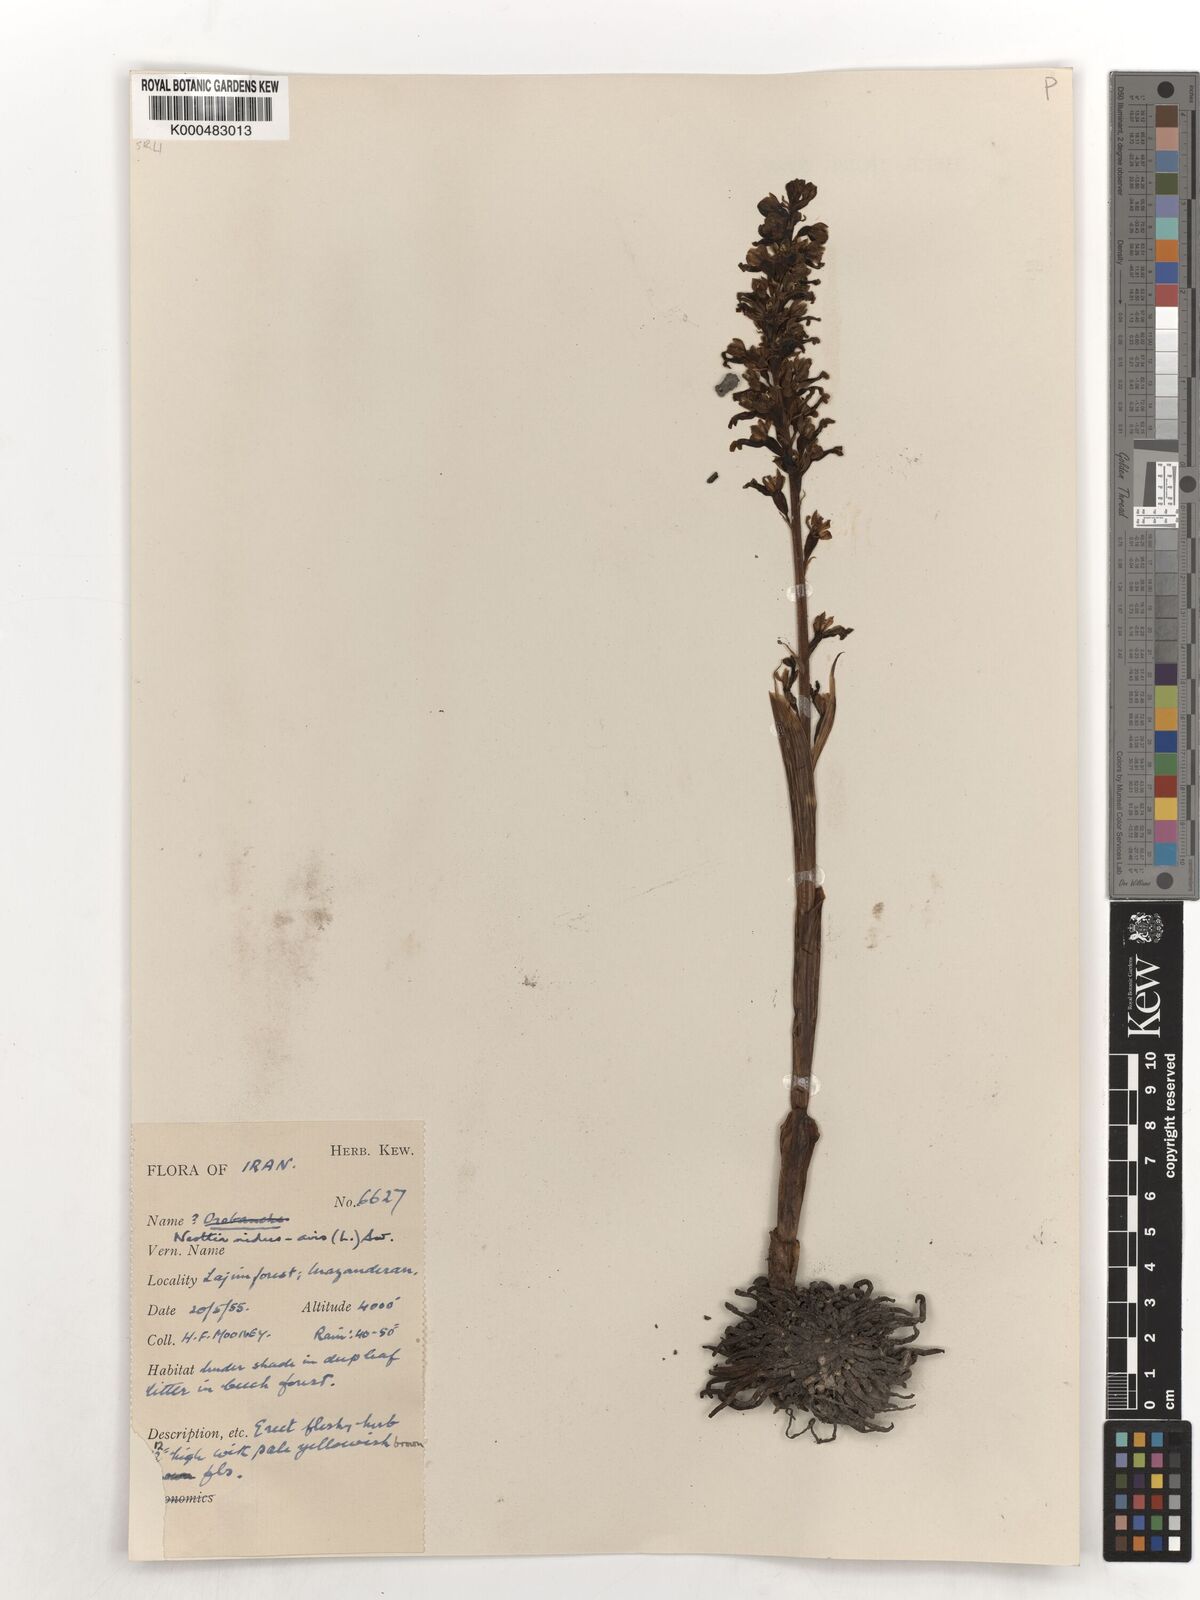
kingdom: Plantae
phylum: Tracheophyta
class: Liliopsida
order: Asparagales
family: Orchidaceae
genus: Neottia
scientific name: Neottia nidus-avis
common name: Bird's-nest orchid
